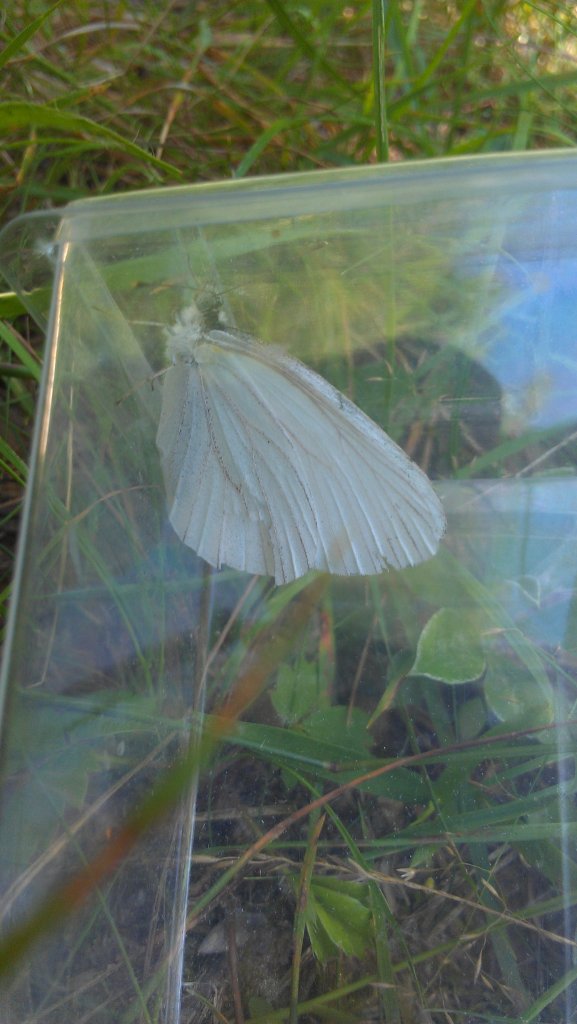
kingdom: Animalia
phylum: Arthropoda
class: Insecta
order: Lepidoptera
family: Pieridae
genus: Pieris
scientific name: Pieris oleracea
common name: Mustard White
